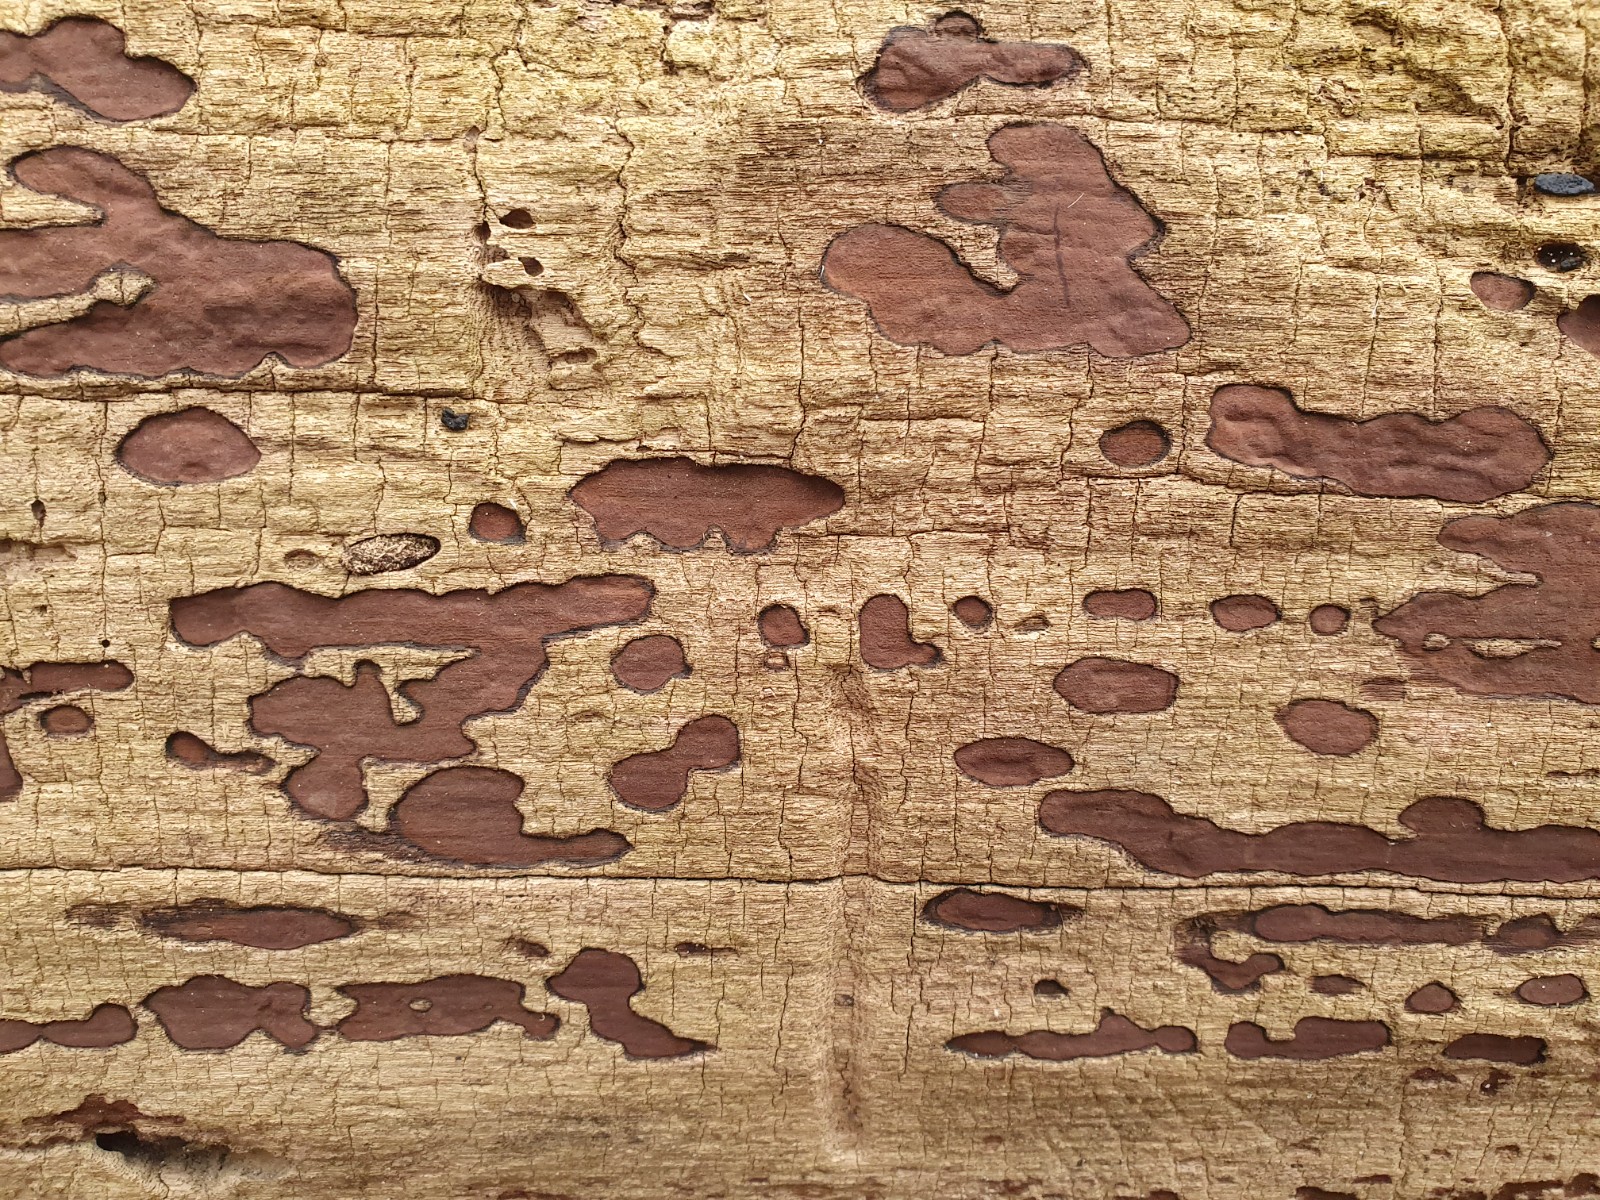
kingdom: Fungi
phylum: Ascomycota
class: Sordariomycetes
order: Xylariales
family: Hypoxylaceae
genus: Hypoxylon
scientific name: Hypoxylon petriniae
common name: nedsænket kulbær
